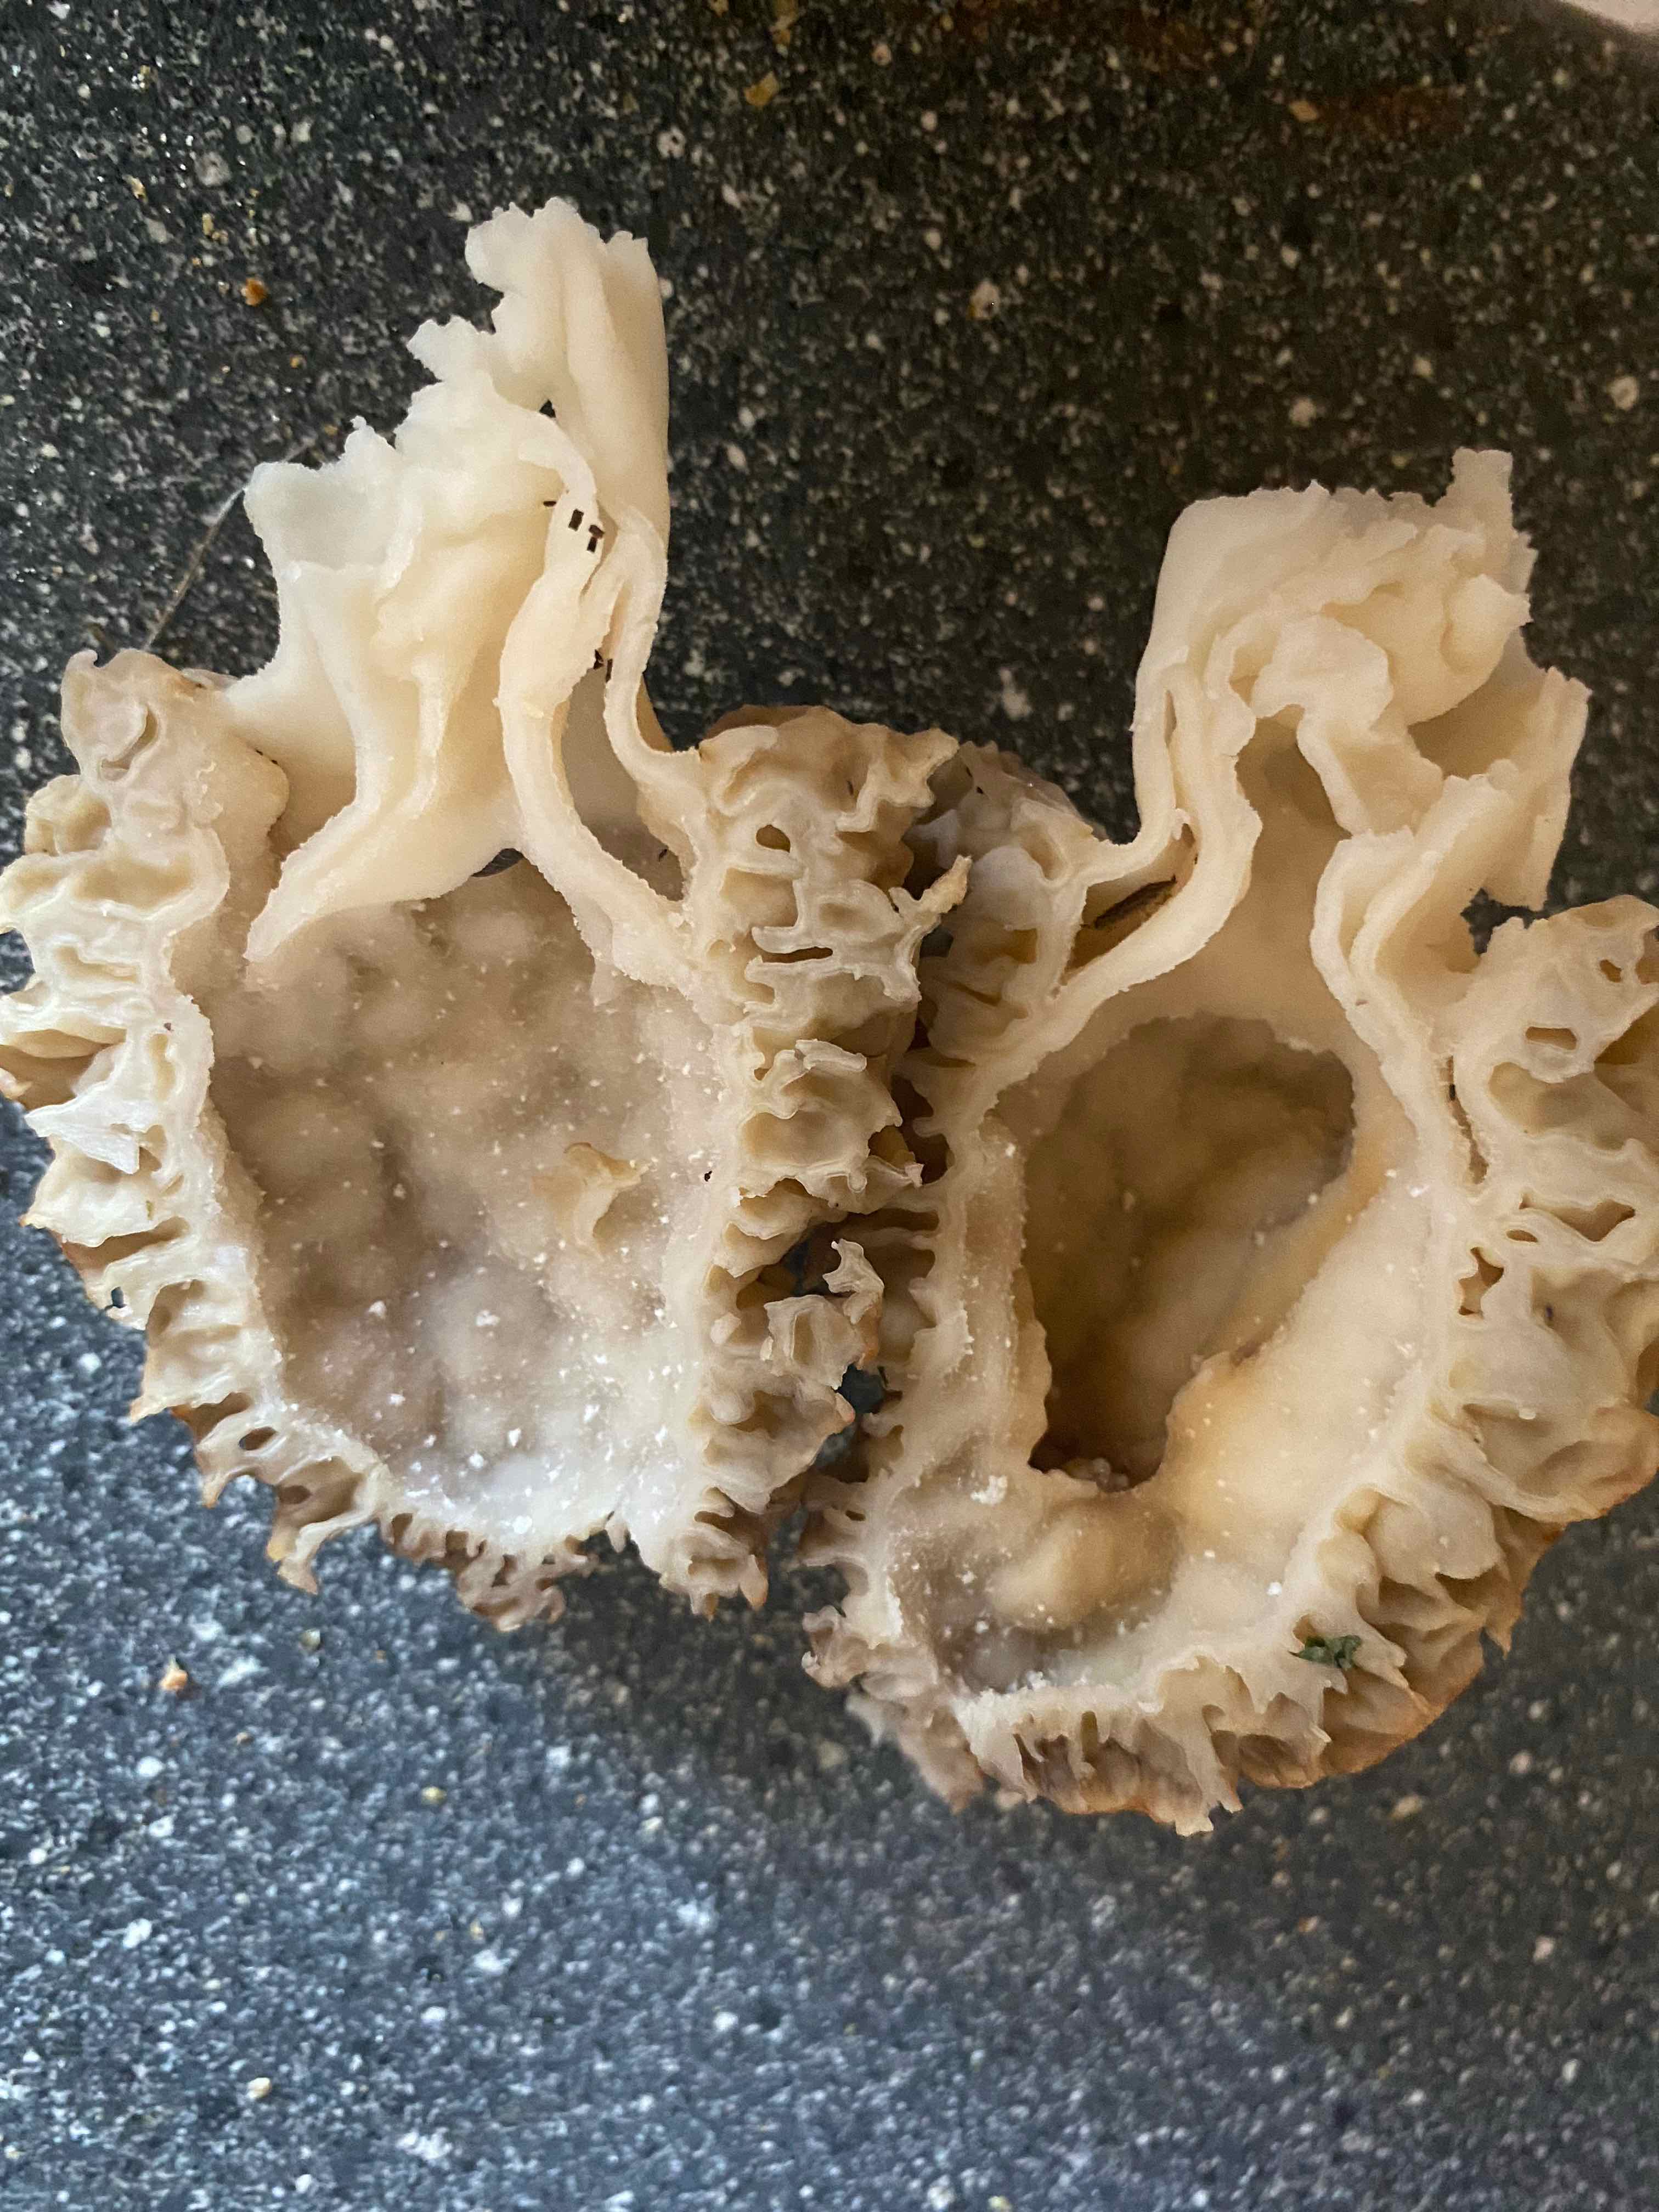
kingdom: Fungi
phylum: Ascomycota
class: Pezizomycetes
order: Pezizales
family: Morchellaceae
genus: Morchella
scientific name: Morchella esculenta
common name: spiselig morkel
